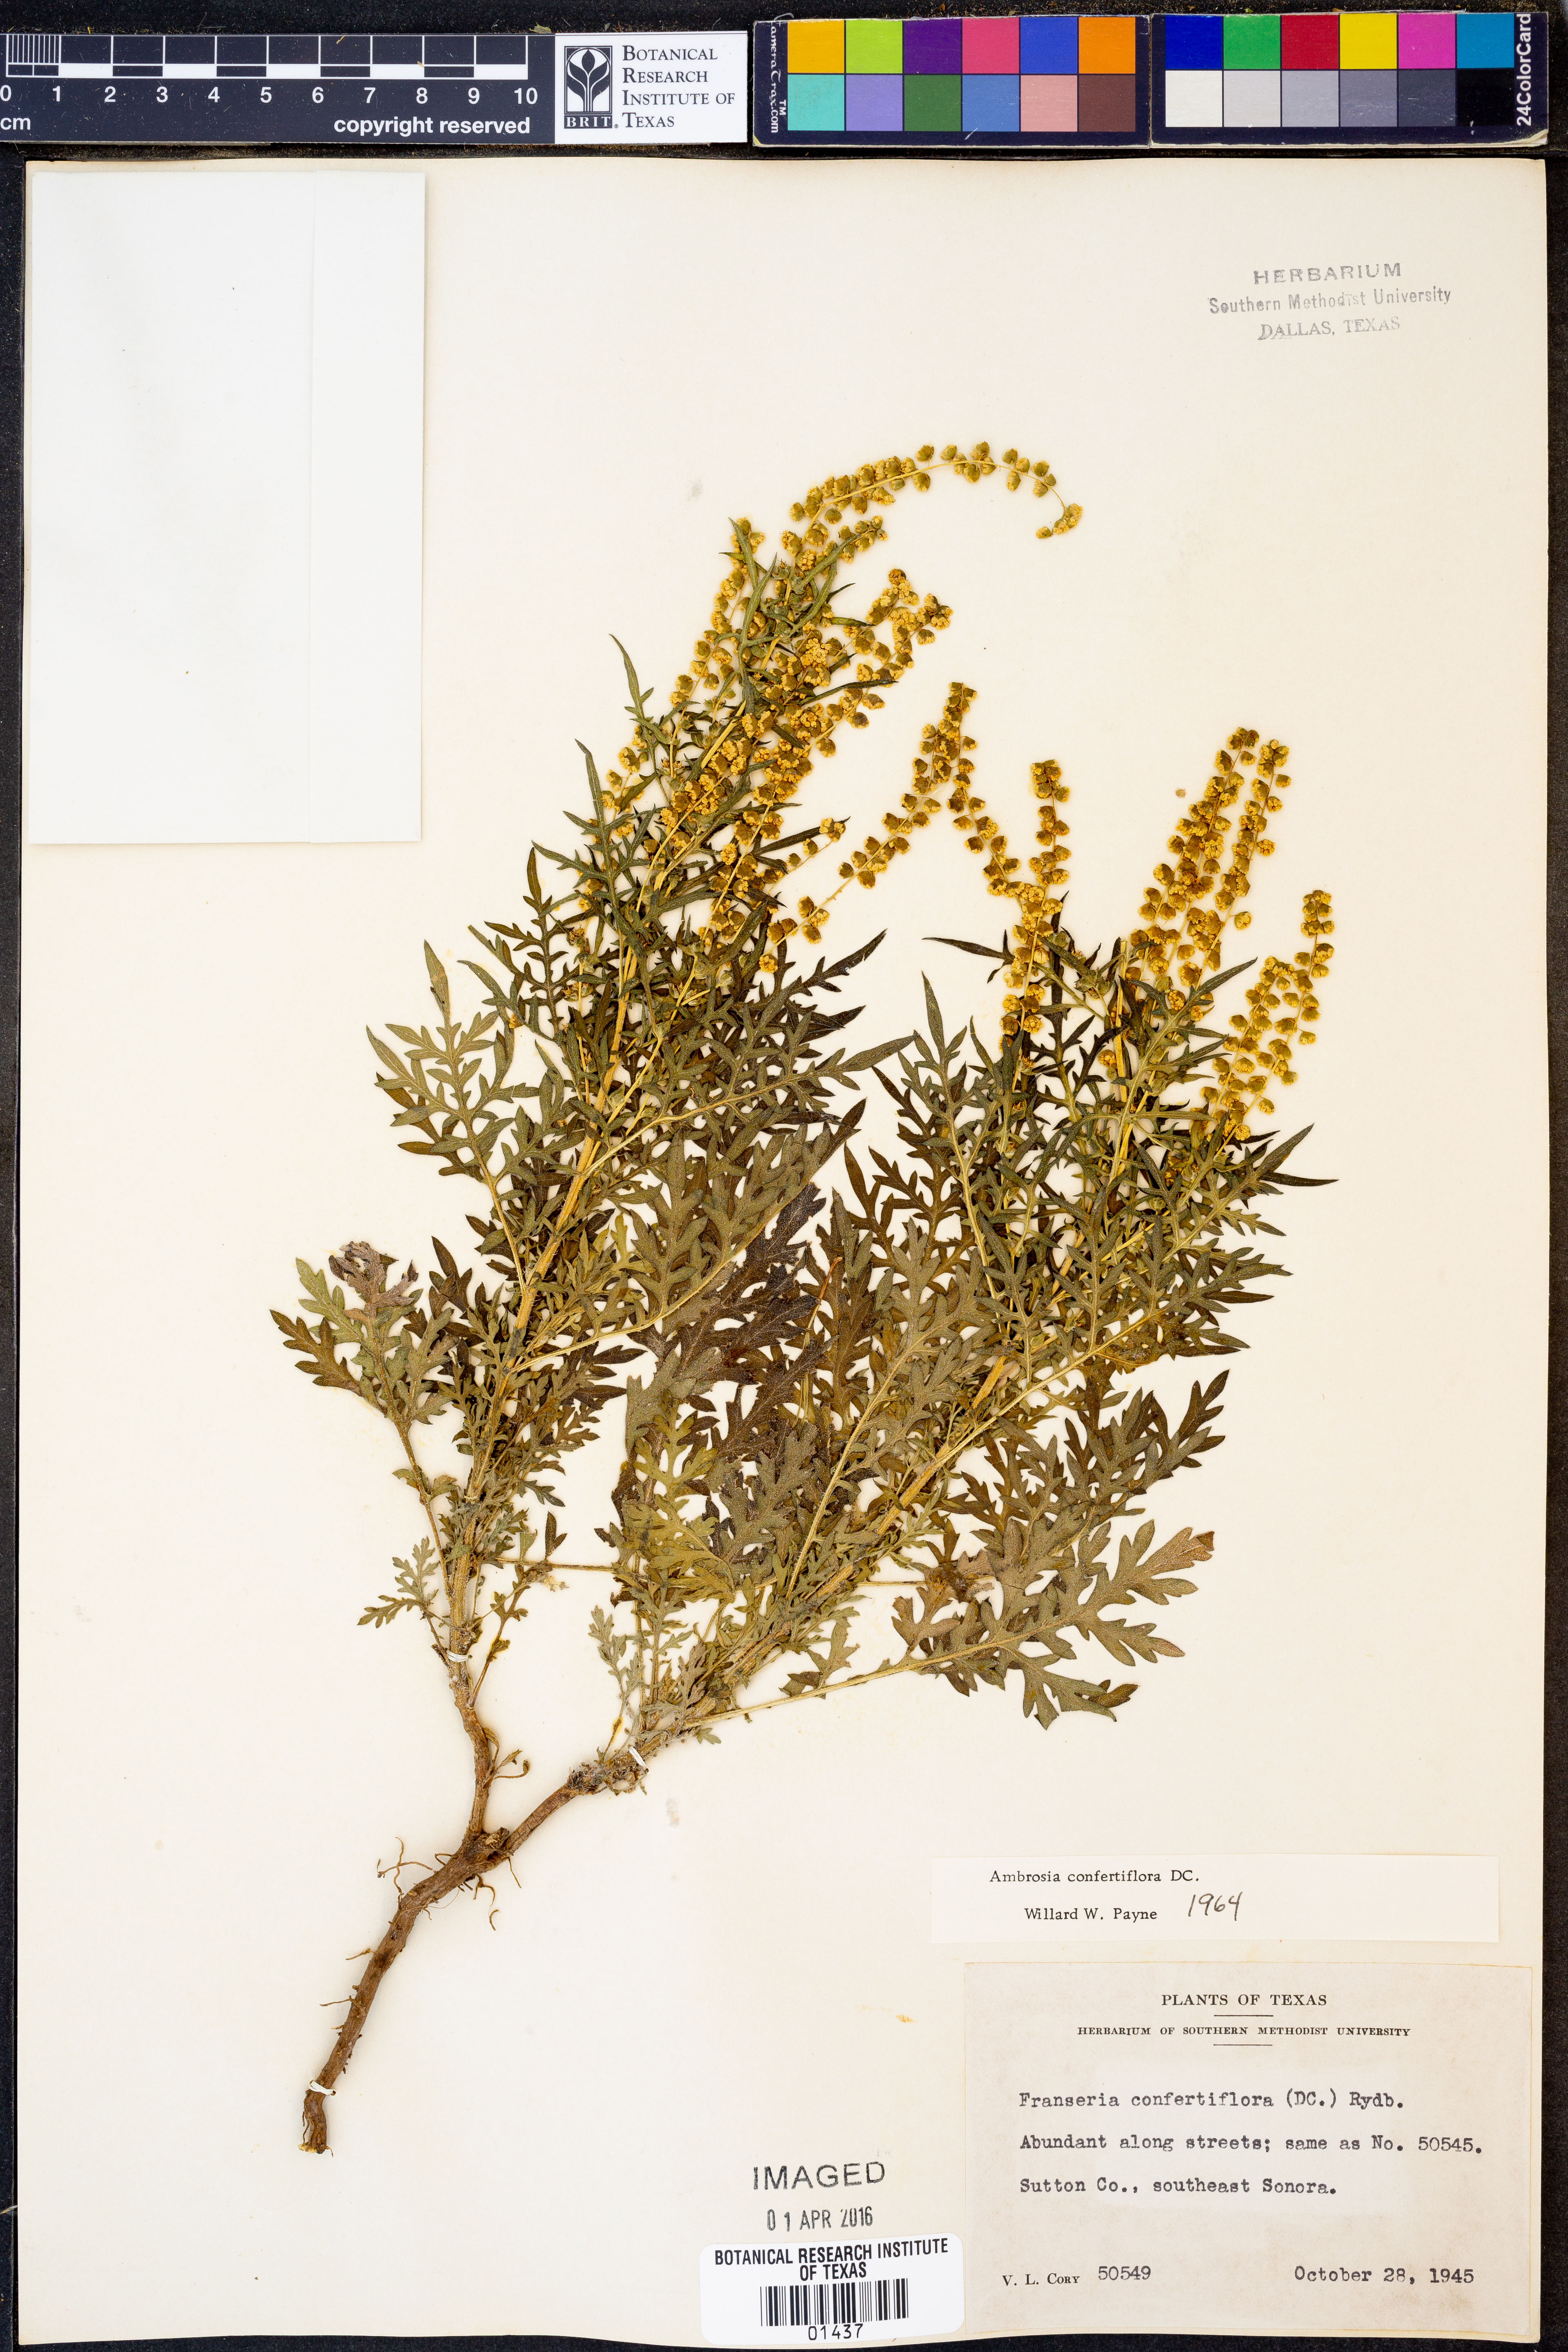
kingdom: Plantae
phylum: Tracheophyta
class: Magnoliopsida
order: Asterales
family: Asteraceae
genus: Ambrosia
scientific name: Ambrosia confertiflora
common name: Bur ragweed
